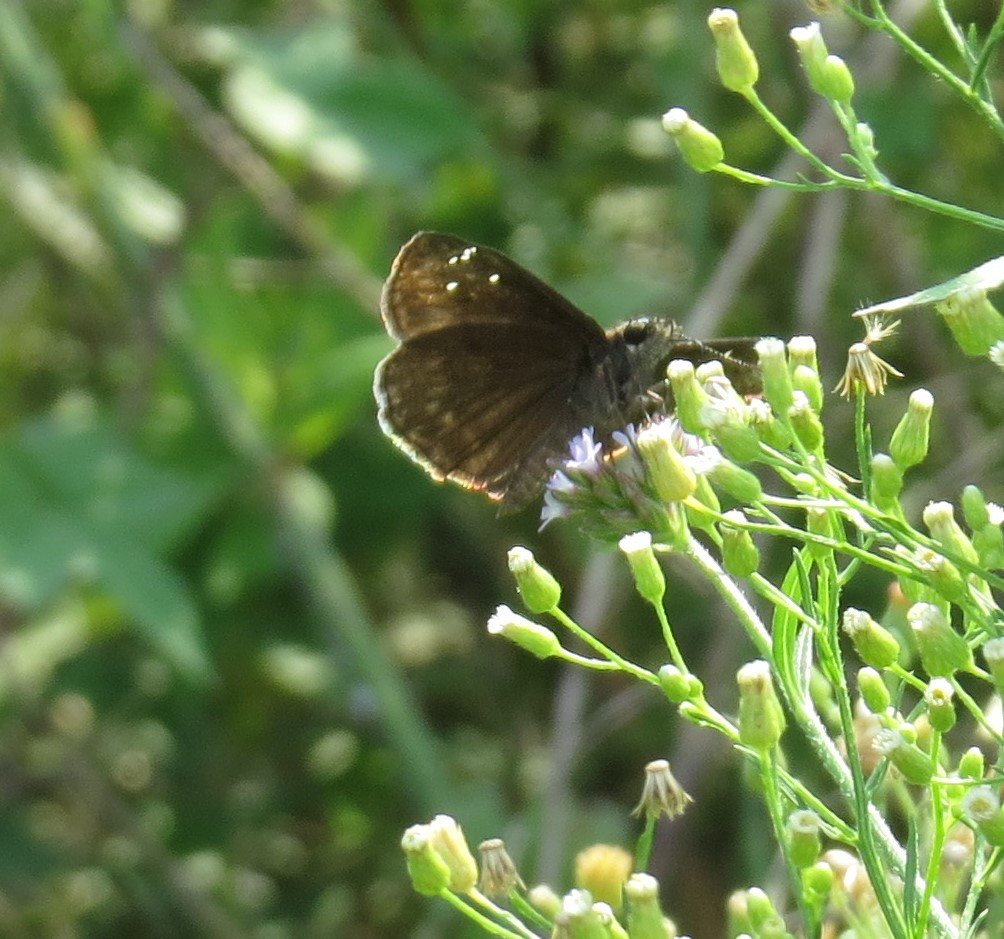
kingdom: Animalia
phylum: Arthropoda
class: Insecta
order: Lepidoptera
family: Hesperiidae
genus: Gesta
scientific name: Gesta
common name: Horace's Duskywing
